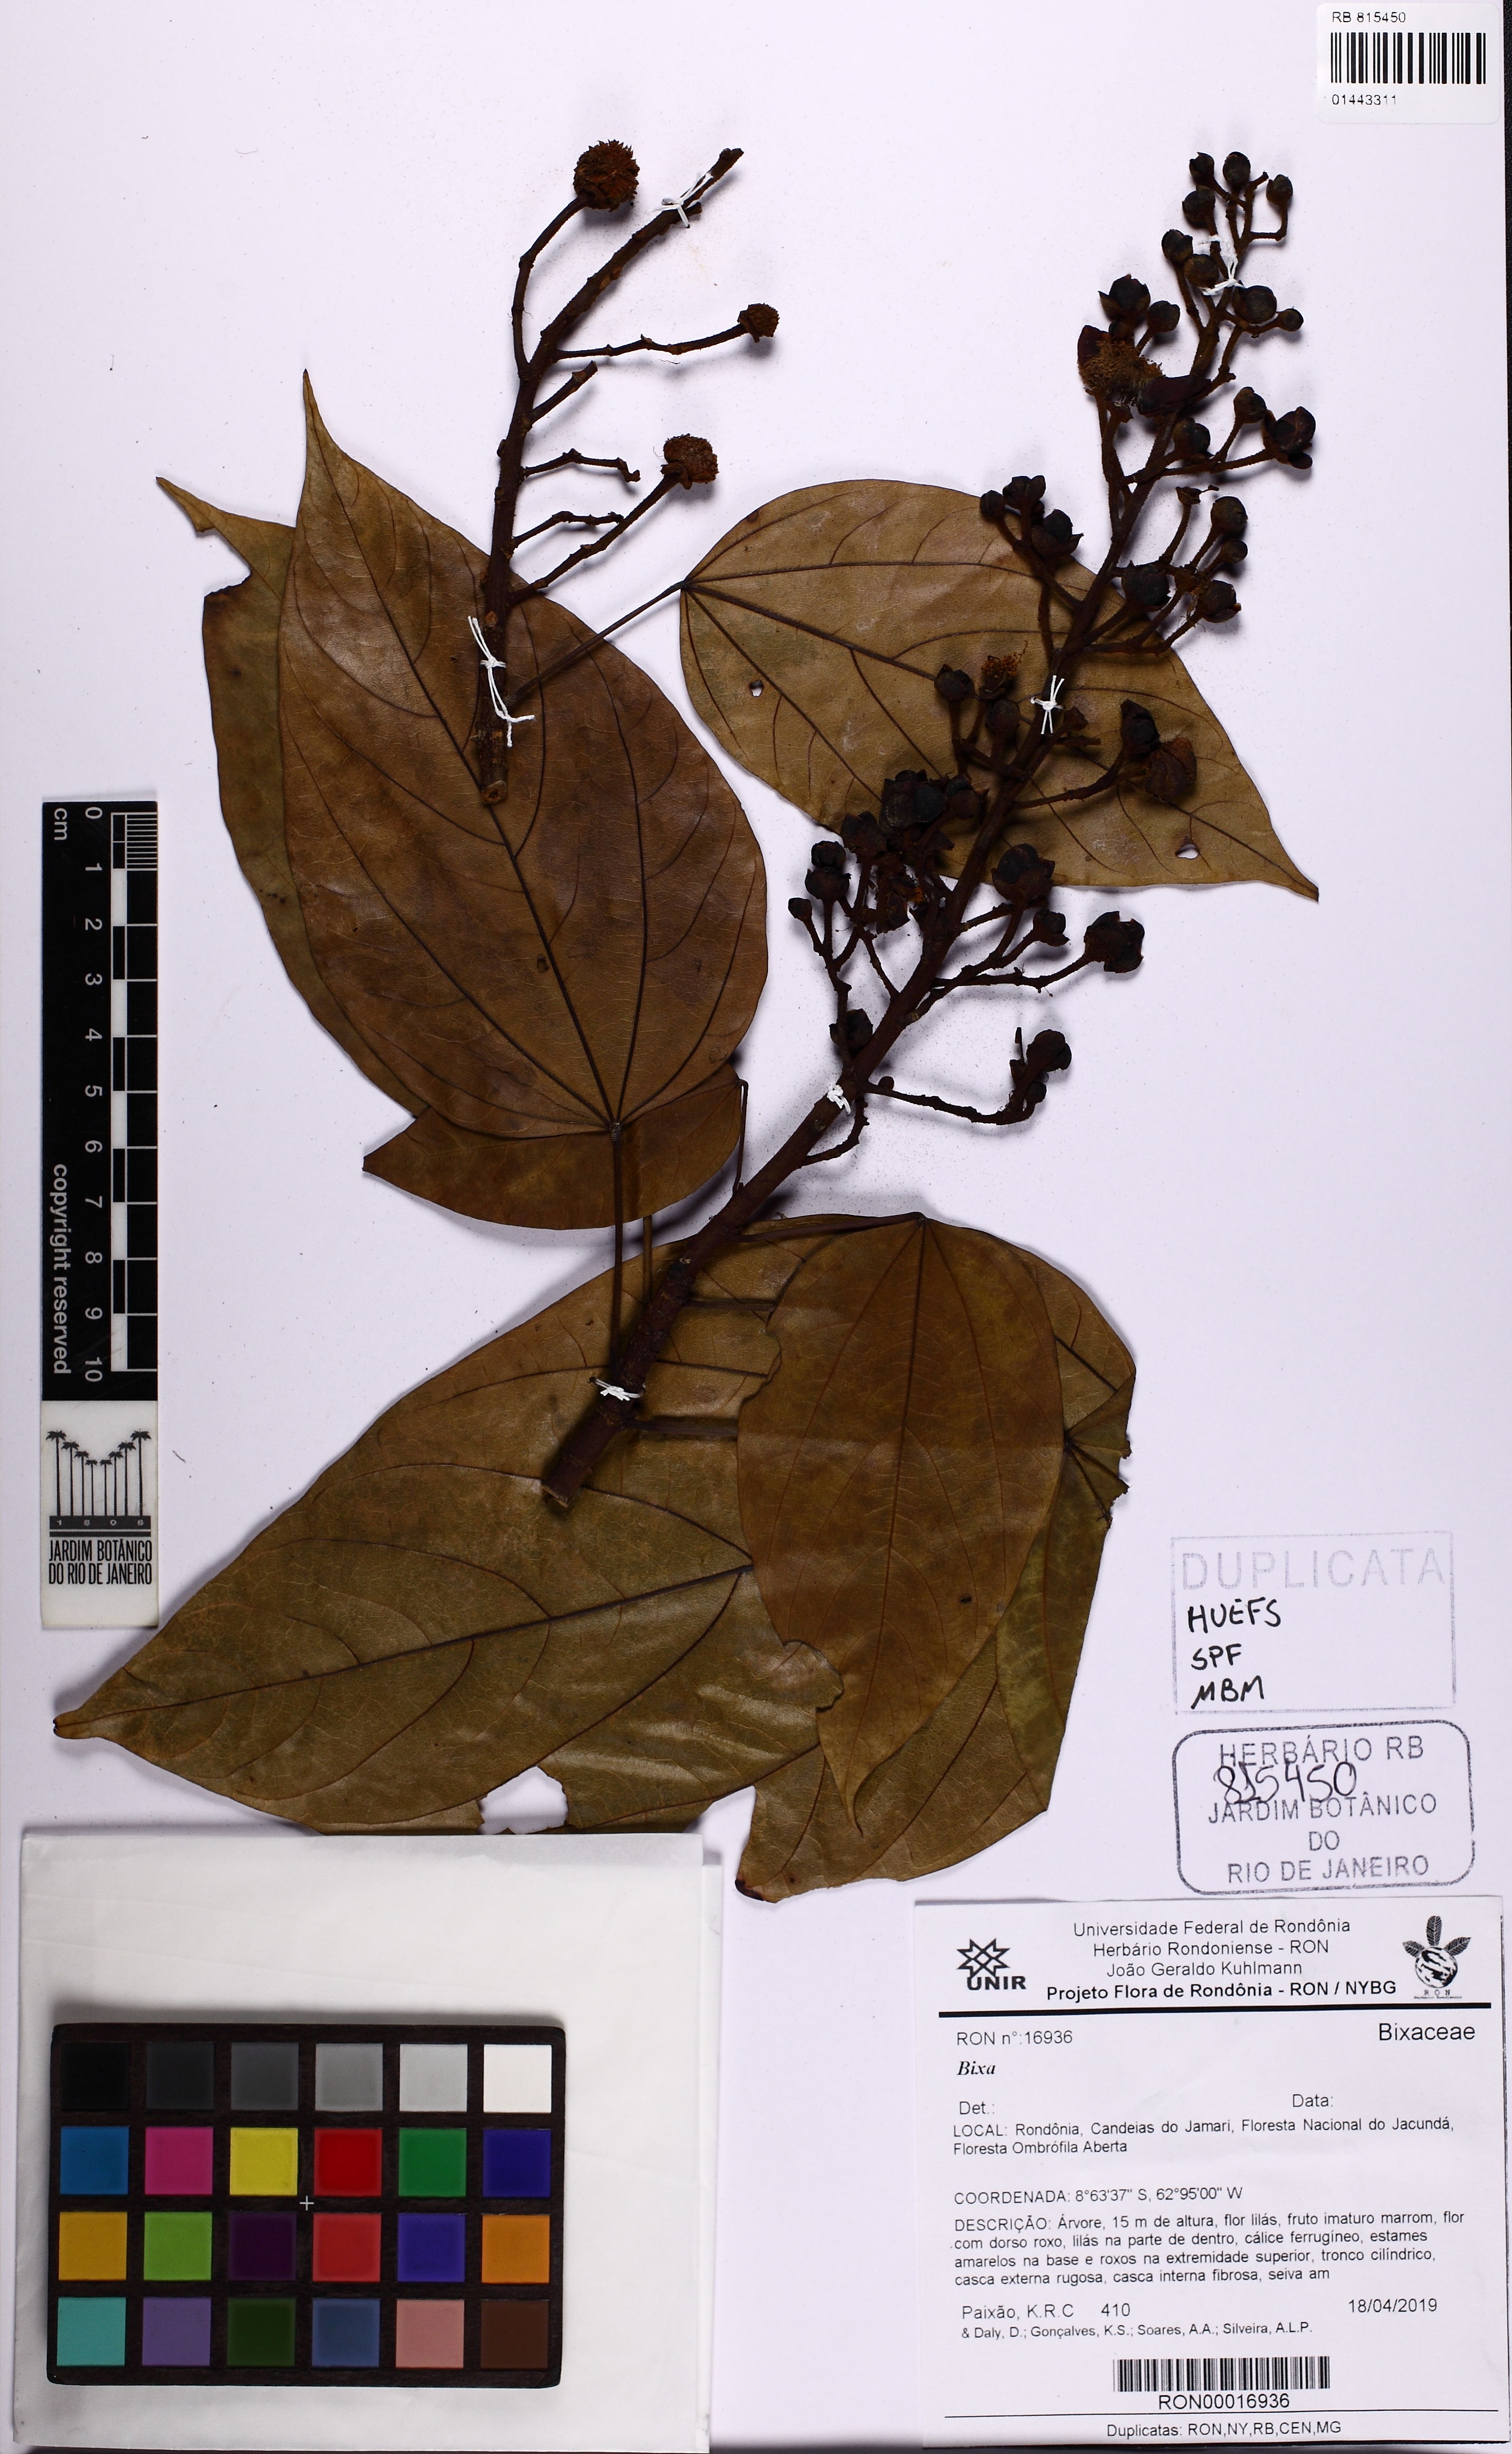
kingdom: Plantae
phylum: Tracheophyta
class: Magnoliopsida
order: Malvales
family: Bixaceae
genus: Bixa
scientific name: Bixa excelsa
